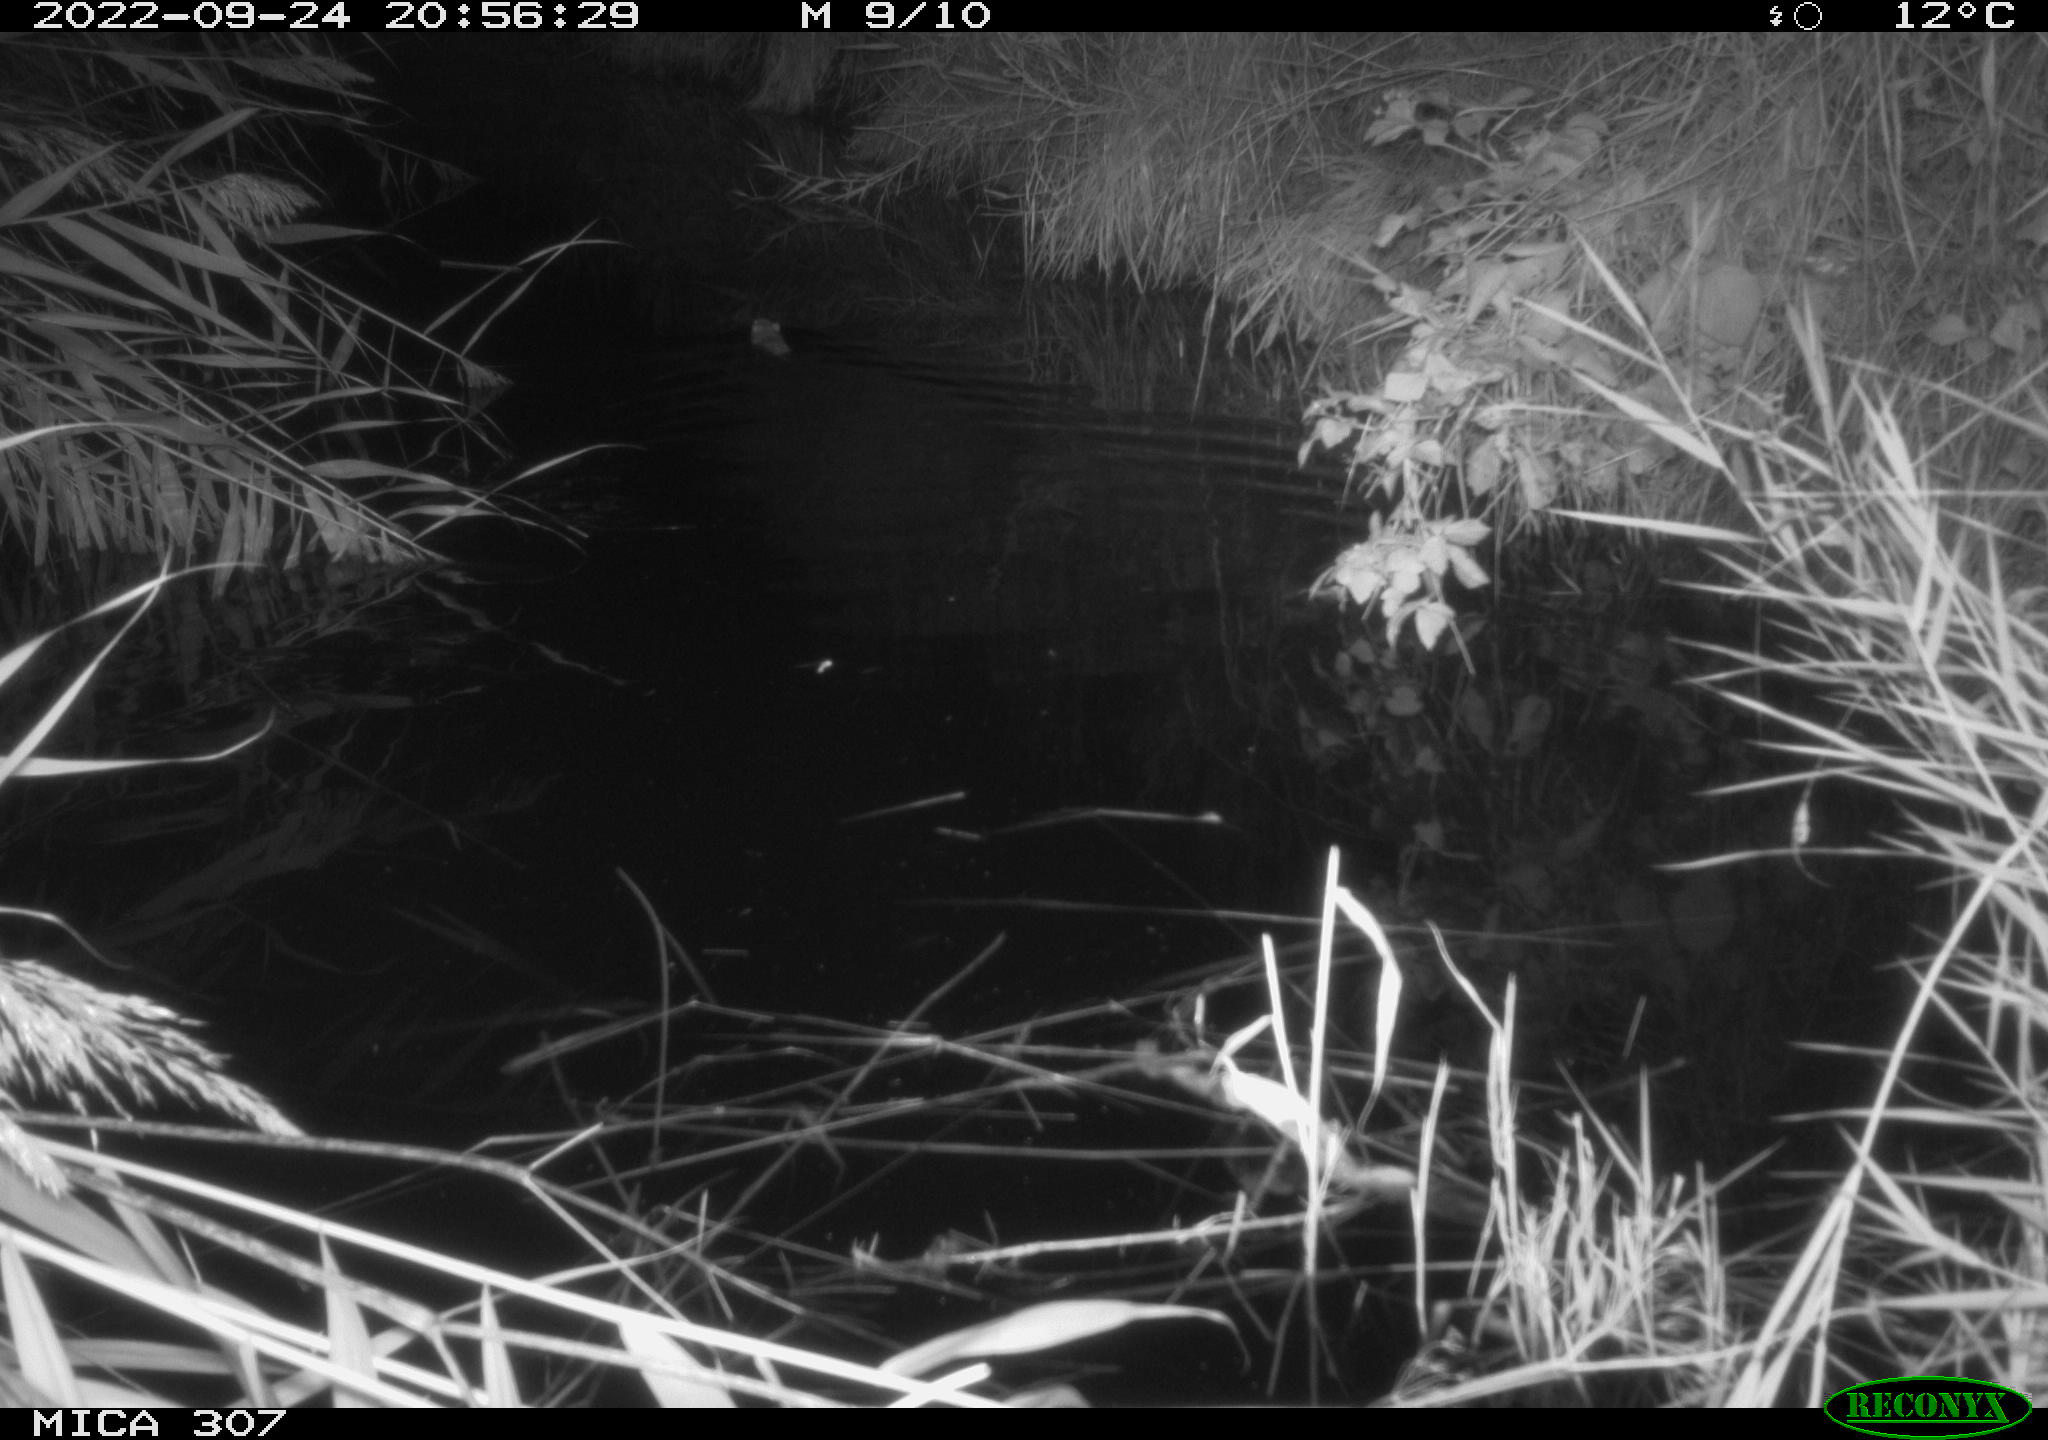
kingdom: Animalia
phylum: Chordata
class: Mammalia
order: Rodentia
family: Muridae
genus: Rattus
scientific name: Rattus norvegicus
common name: Brown rat
